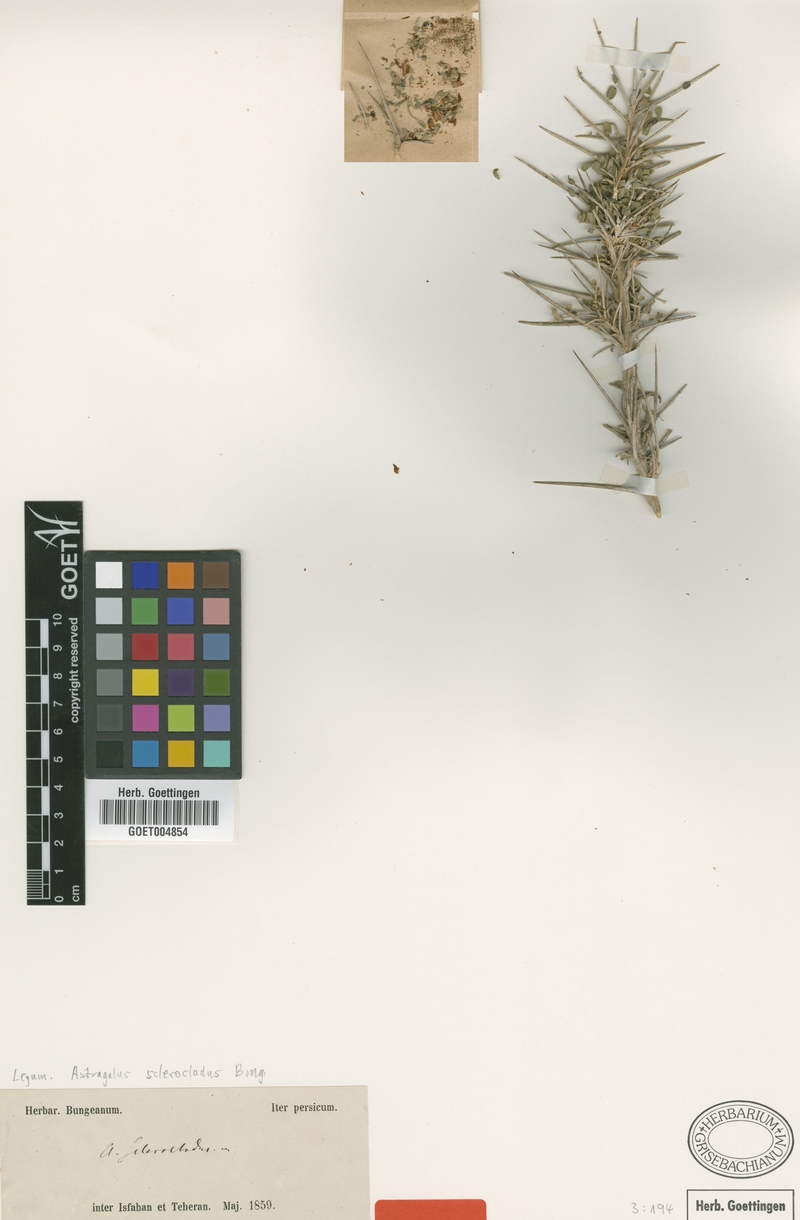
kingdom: Plantae
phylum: Tracheophyta
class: Magnoliopsida
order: Fabales
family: Fabaceae
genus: Astragalus
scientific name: Astragalus sclerocladus
